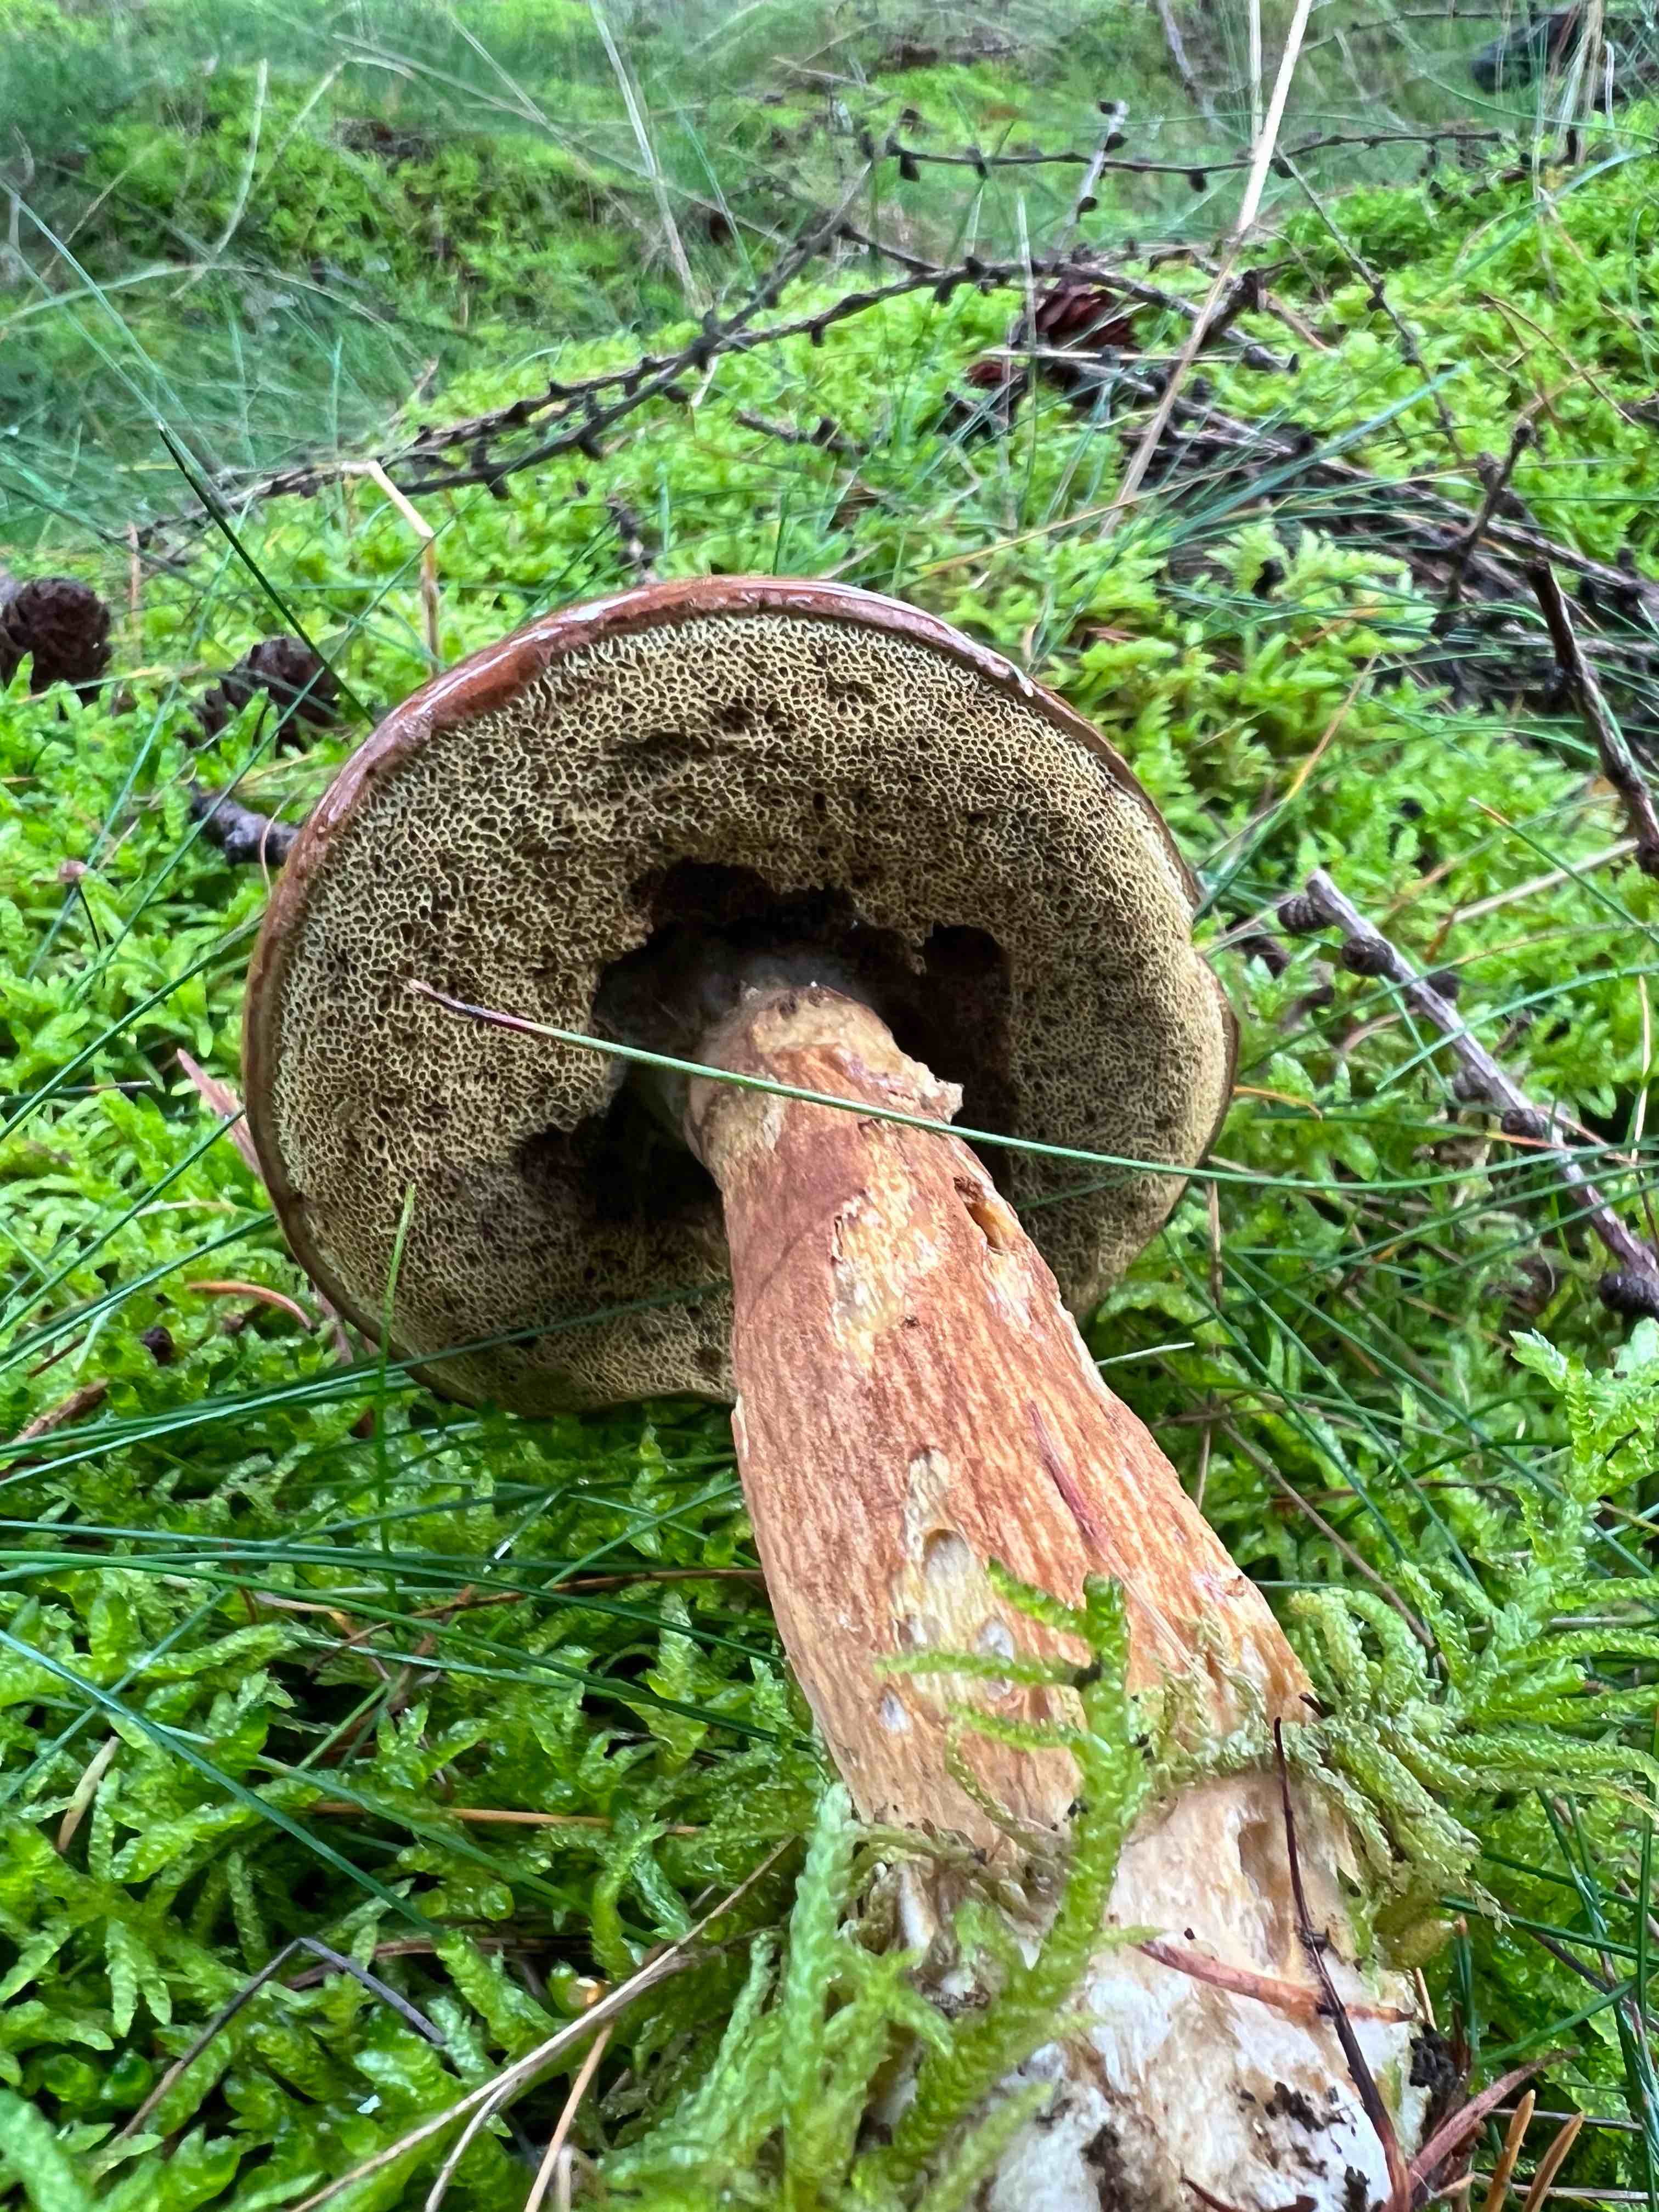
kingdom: Fungi
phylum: Basidiomycota
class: Agaricomycetes
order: Boletales
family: Boletaceae
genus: Imleria
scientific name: Imleria badia
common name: brunstokket rørhat
